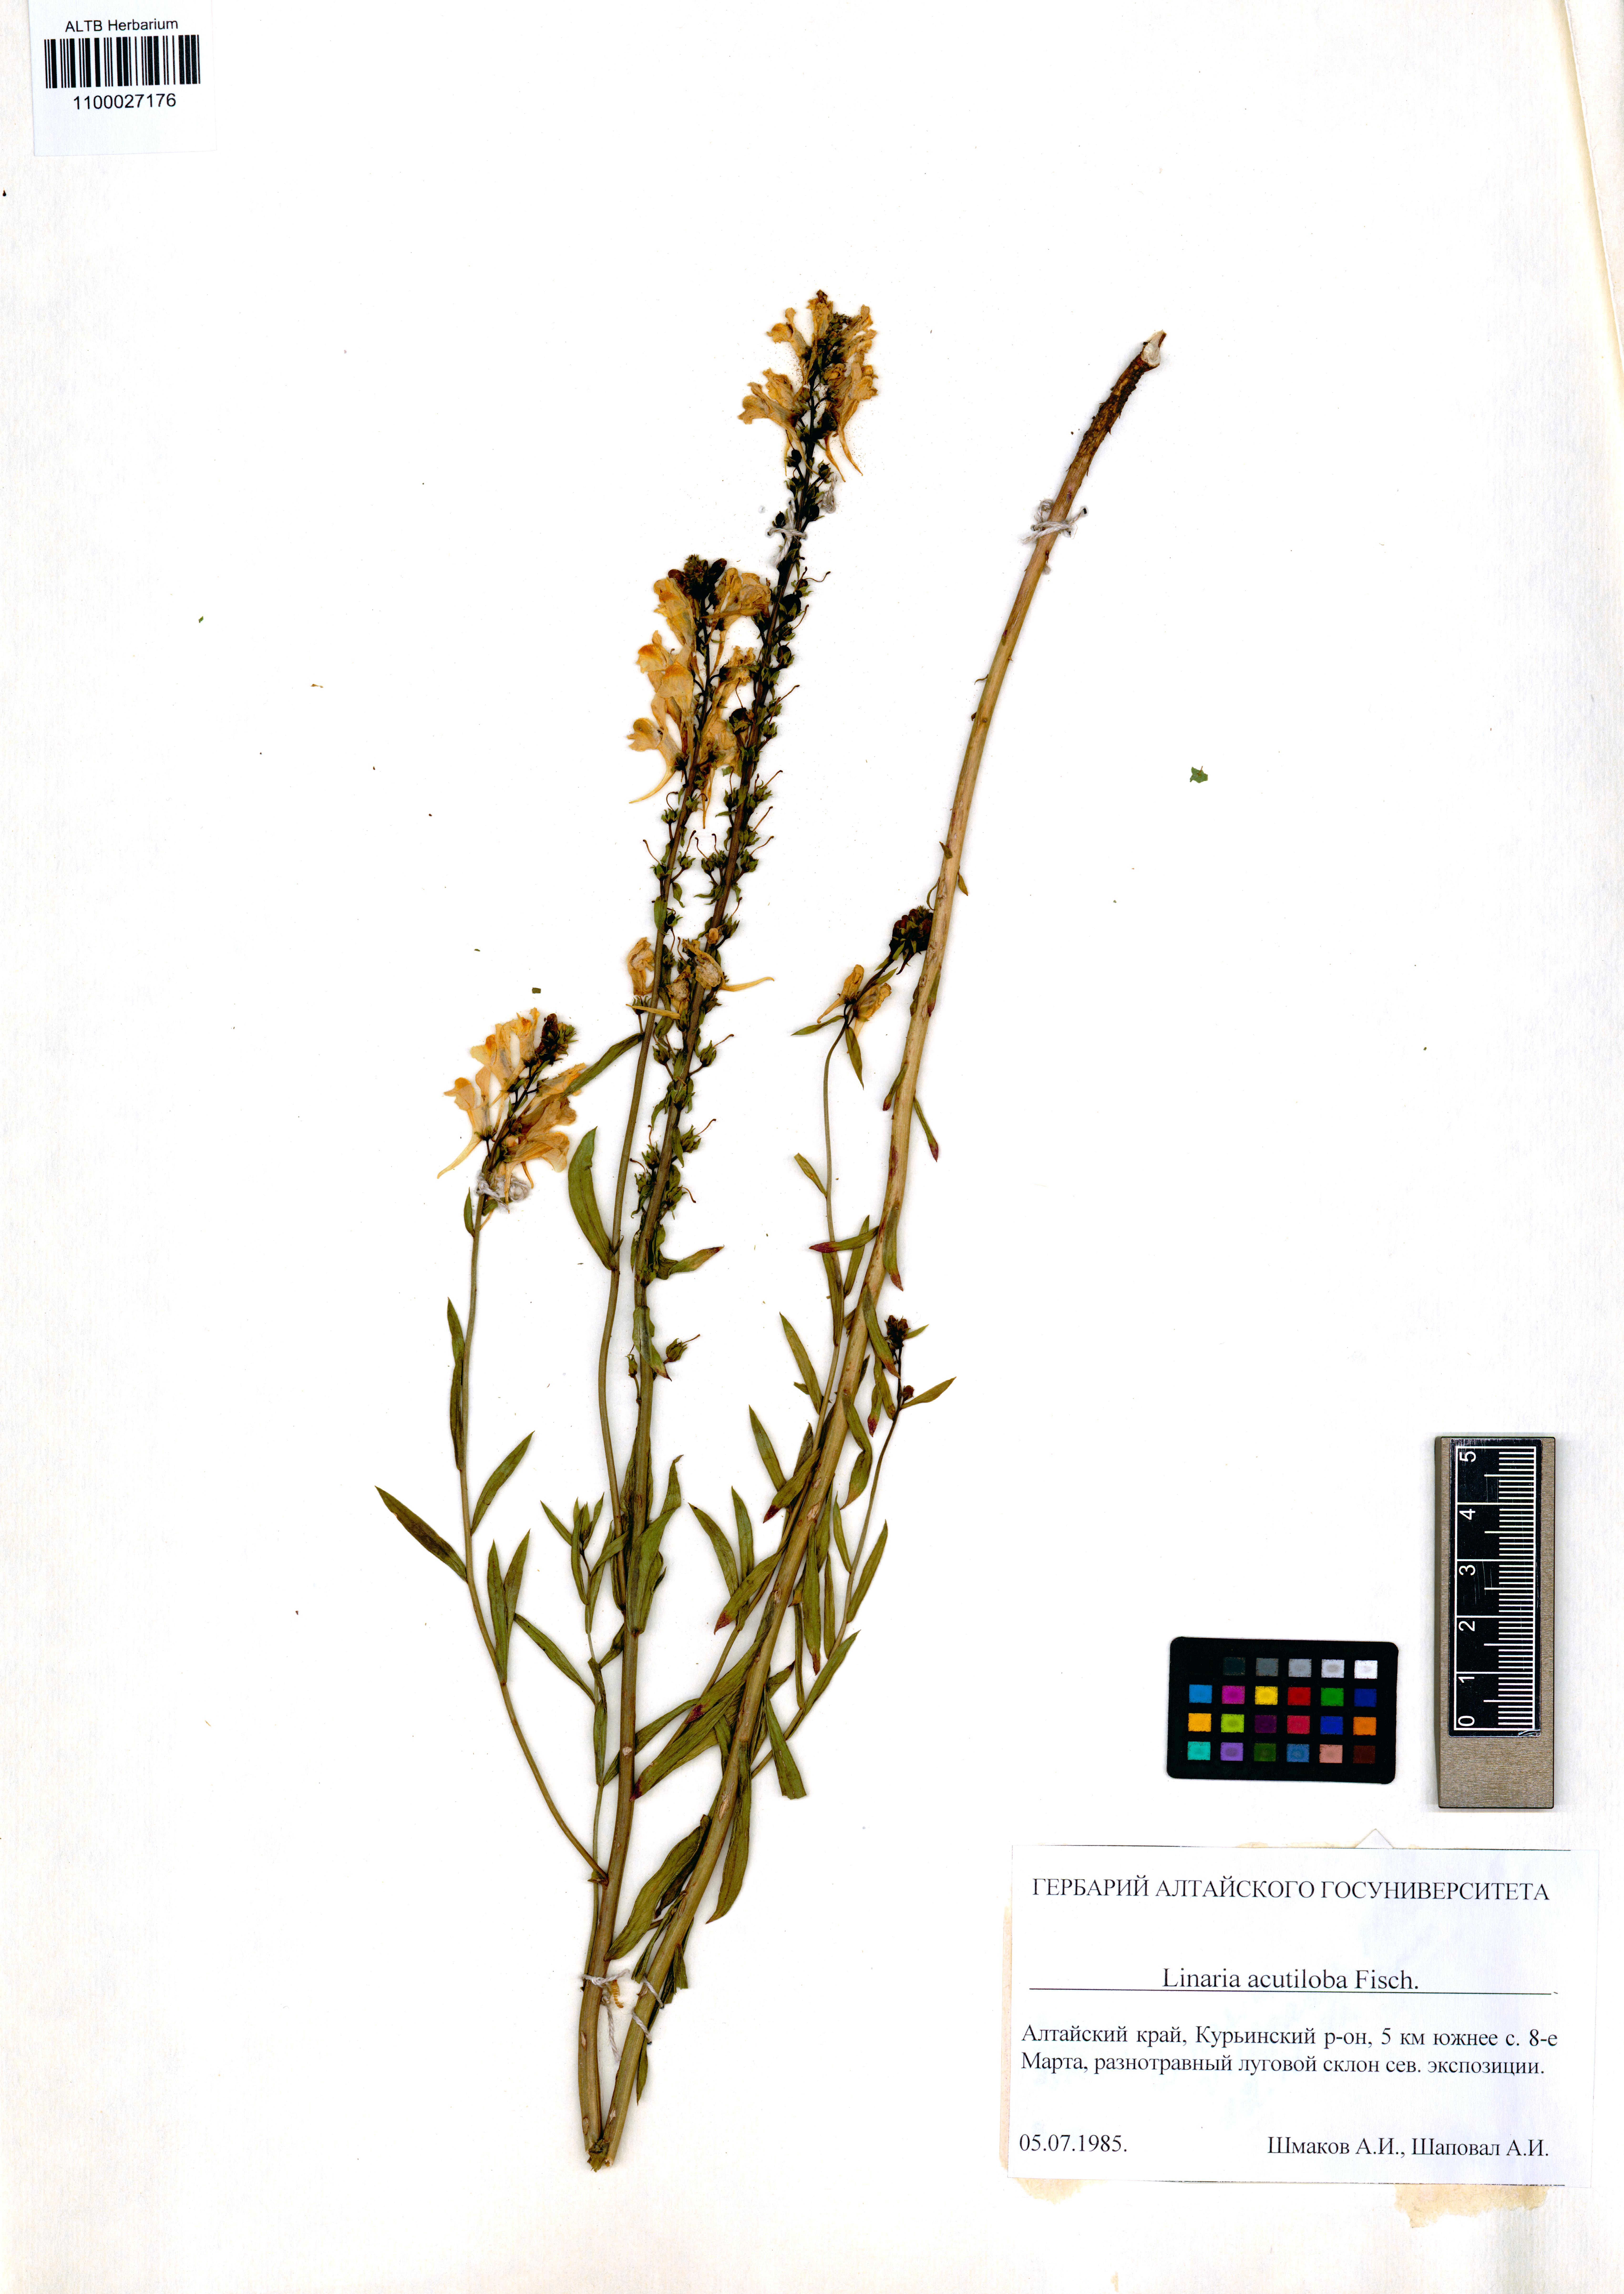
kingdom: Plantae
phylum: Tracheophyta
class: Magnoliopsida
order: Lamiales
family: Plantaginaceae
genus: Linaria
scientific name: Linaria acutiloba
